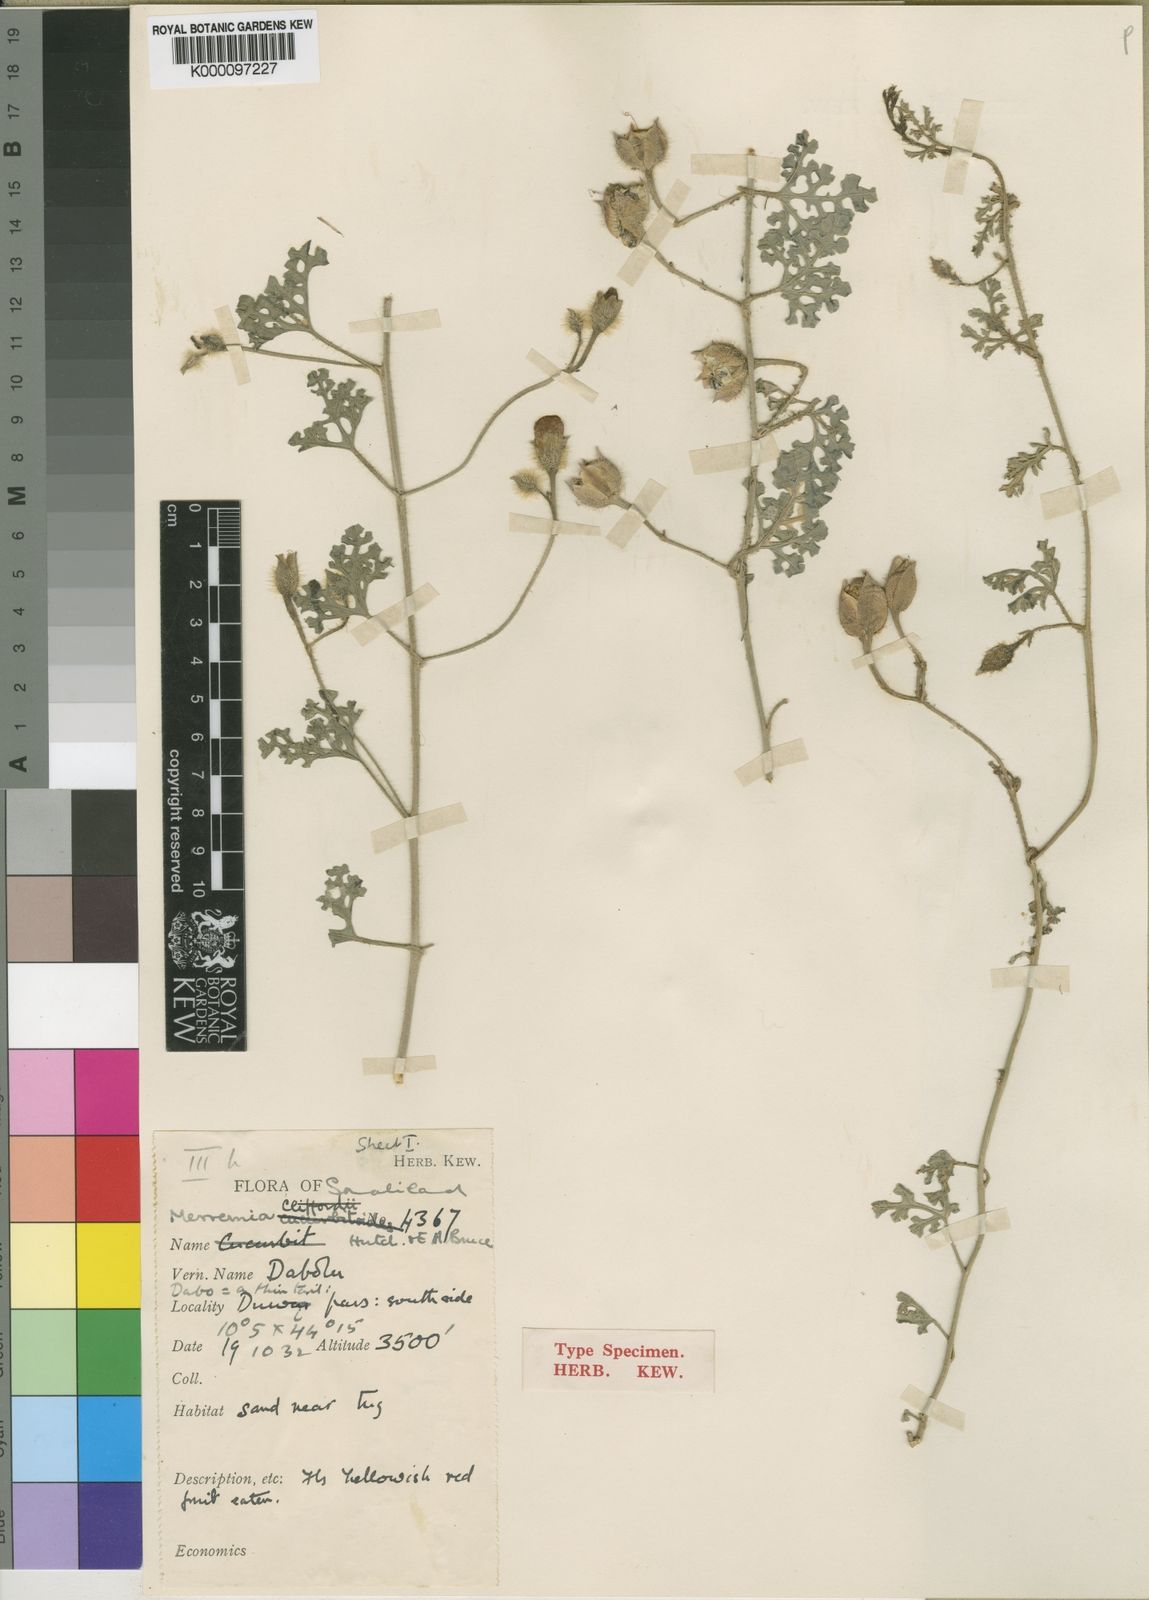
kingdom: Plantae
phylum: Tracheophyta
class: Magnoliopsida
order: Solanales
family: Convolvulaceae
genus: Merremia
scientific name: Merremia gorinii
